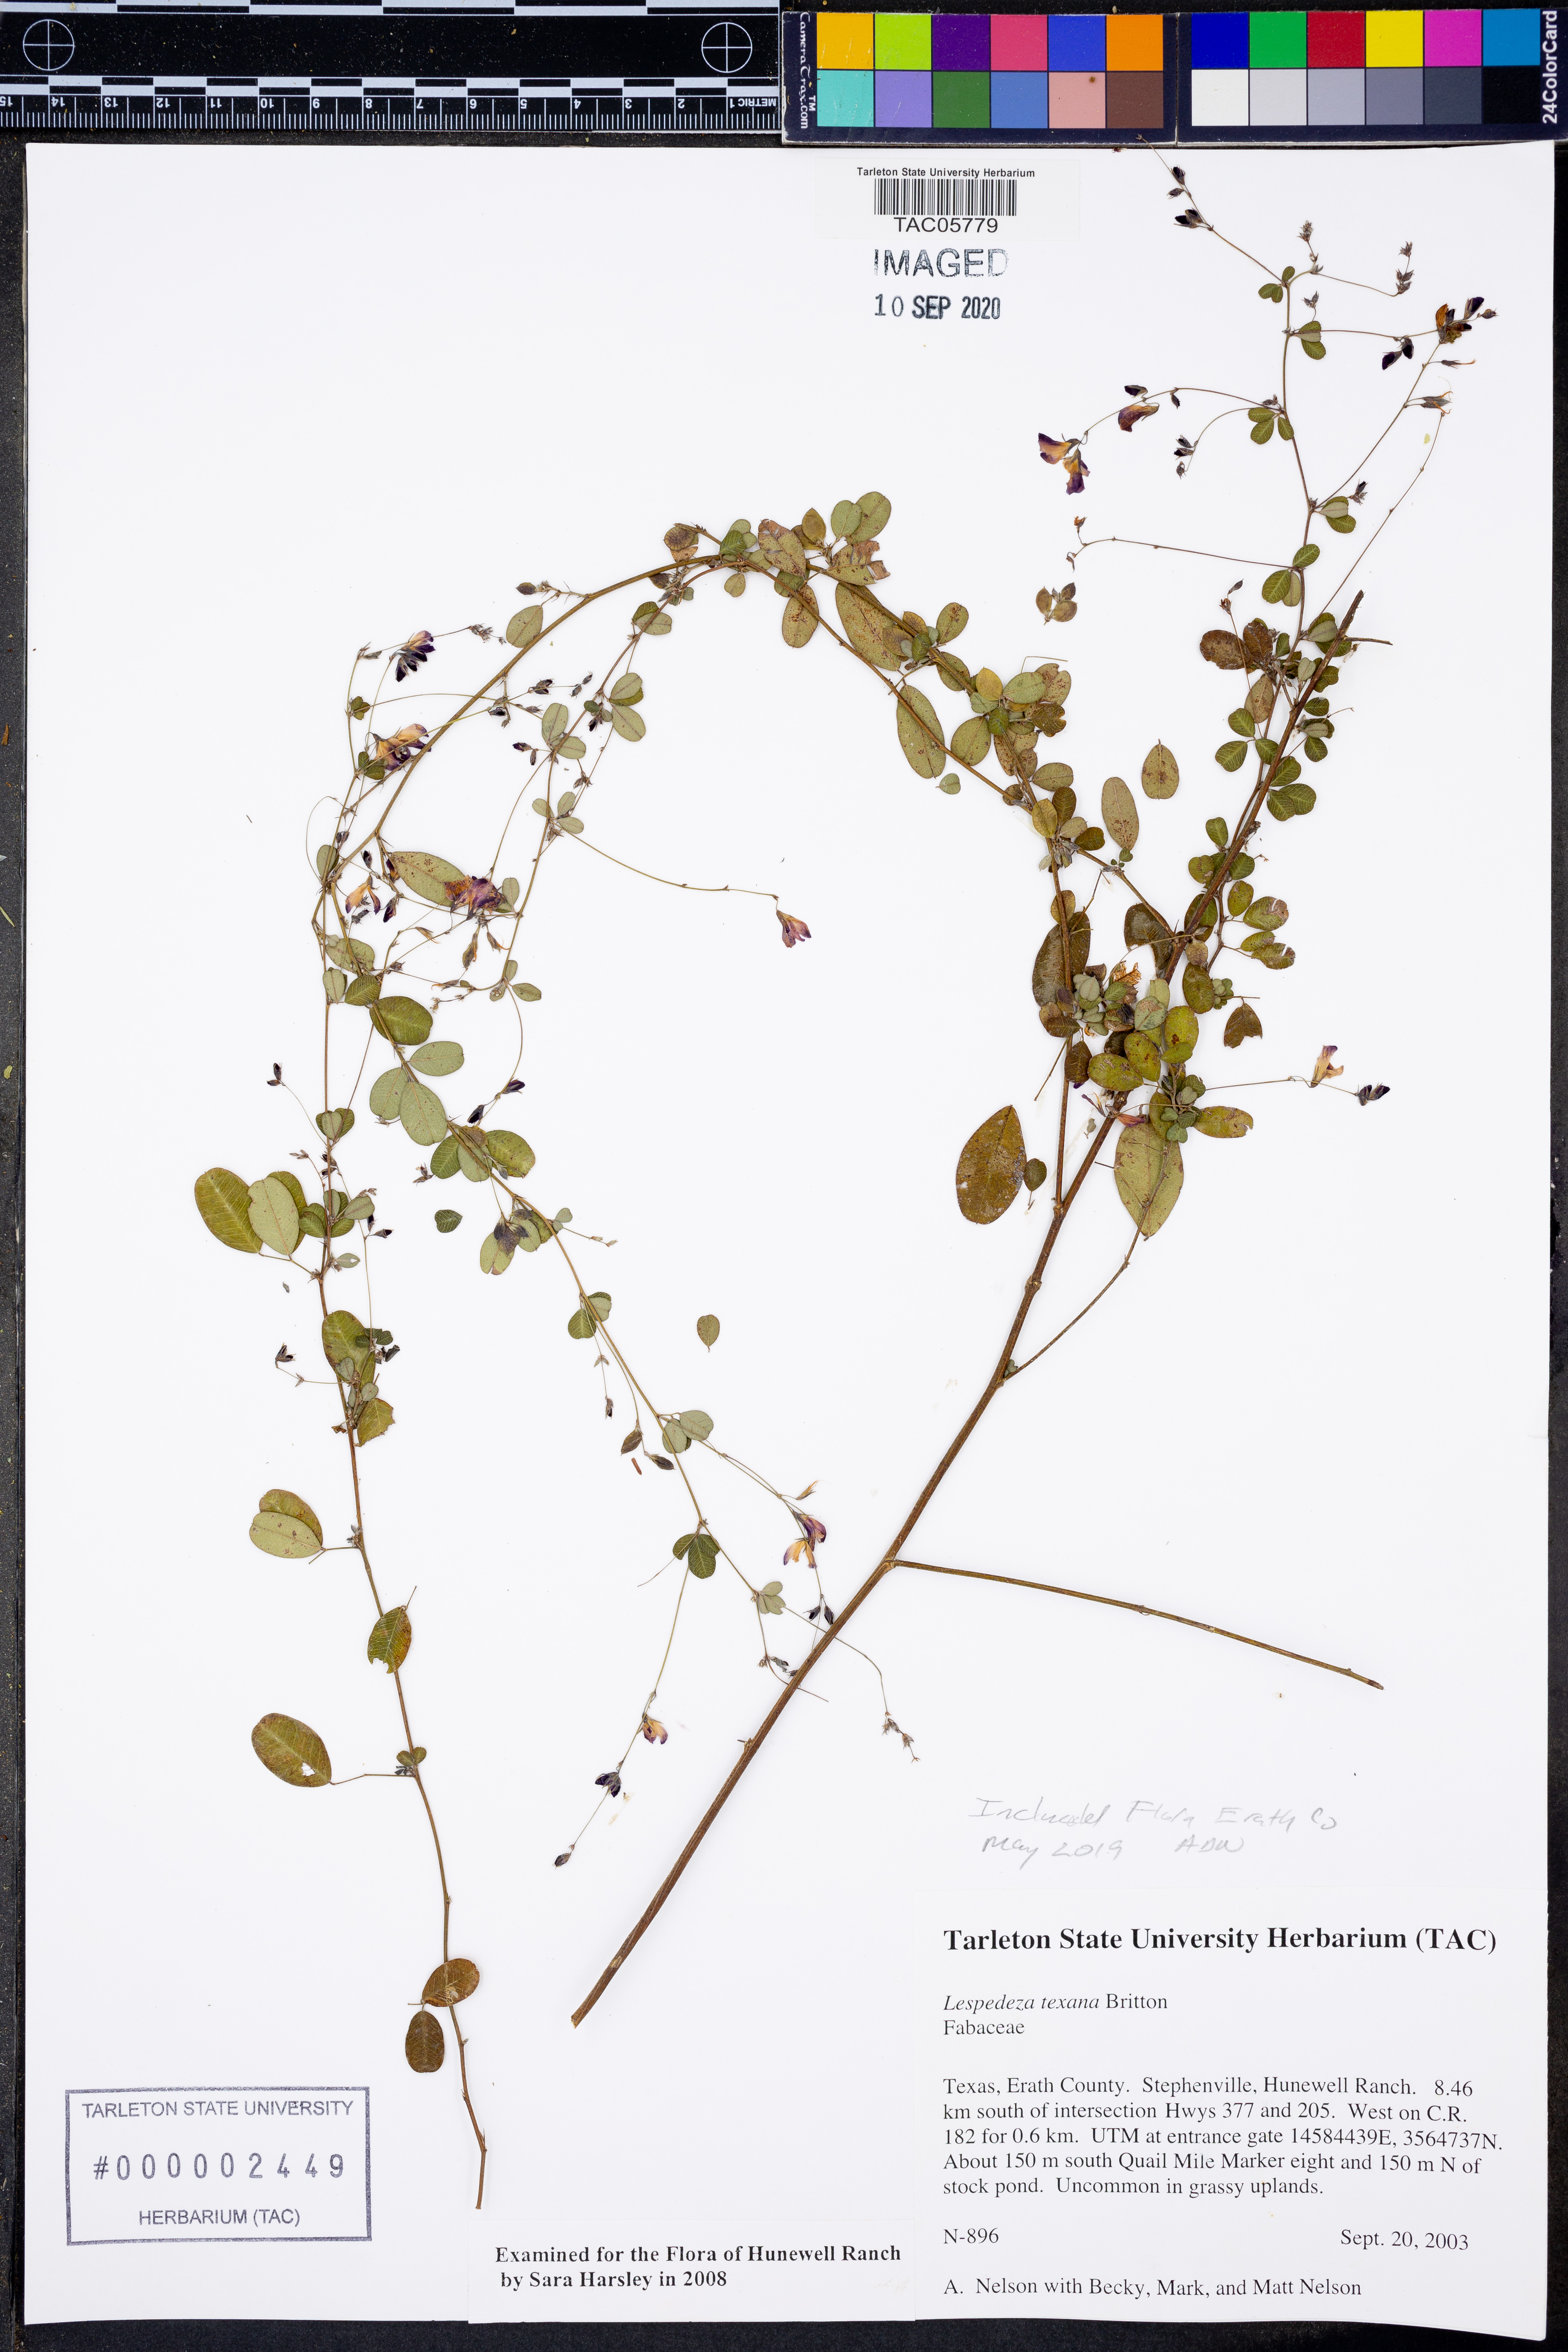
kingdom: Plantae
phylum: Tracheophyta
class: Magnoliopsida
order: Fabales
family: Fabaceae
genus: Lespedeza
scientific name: Lespedeza texana
